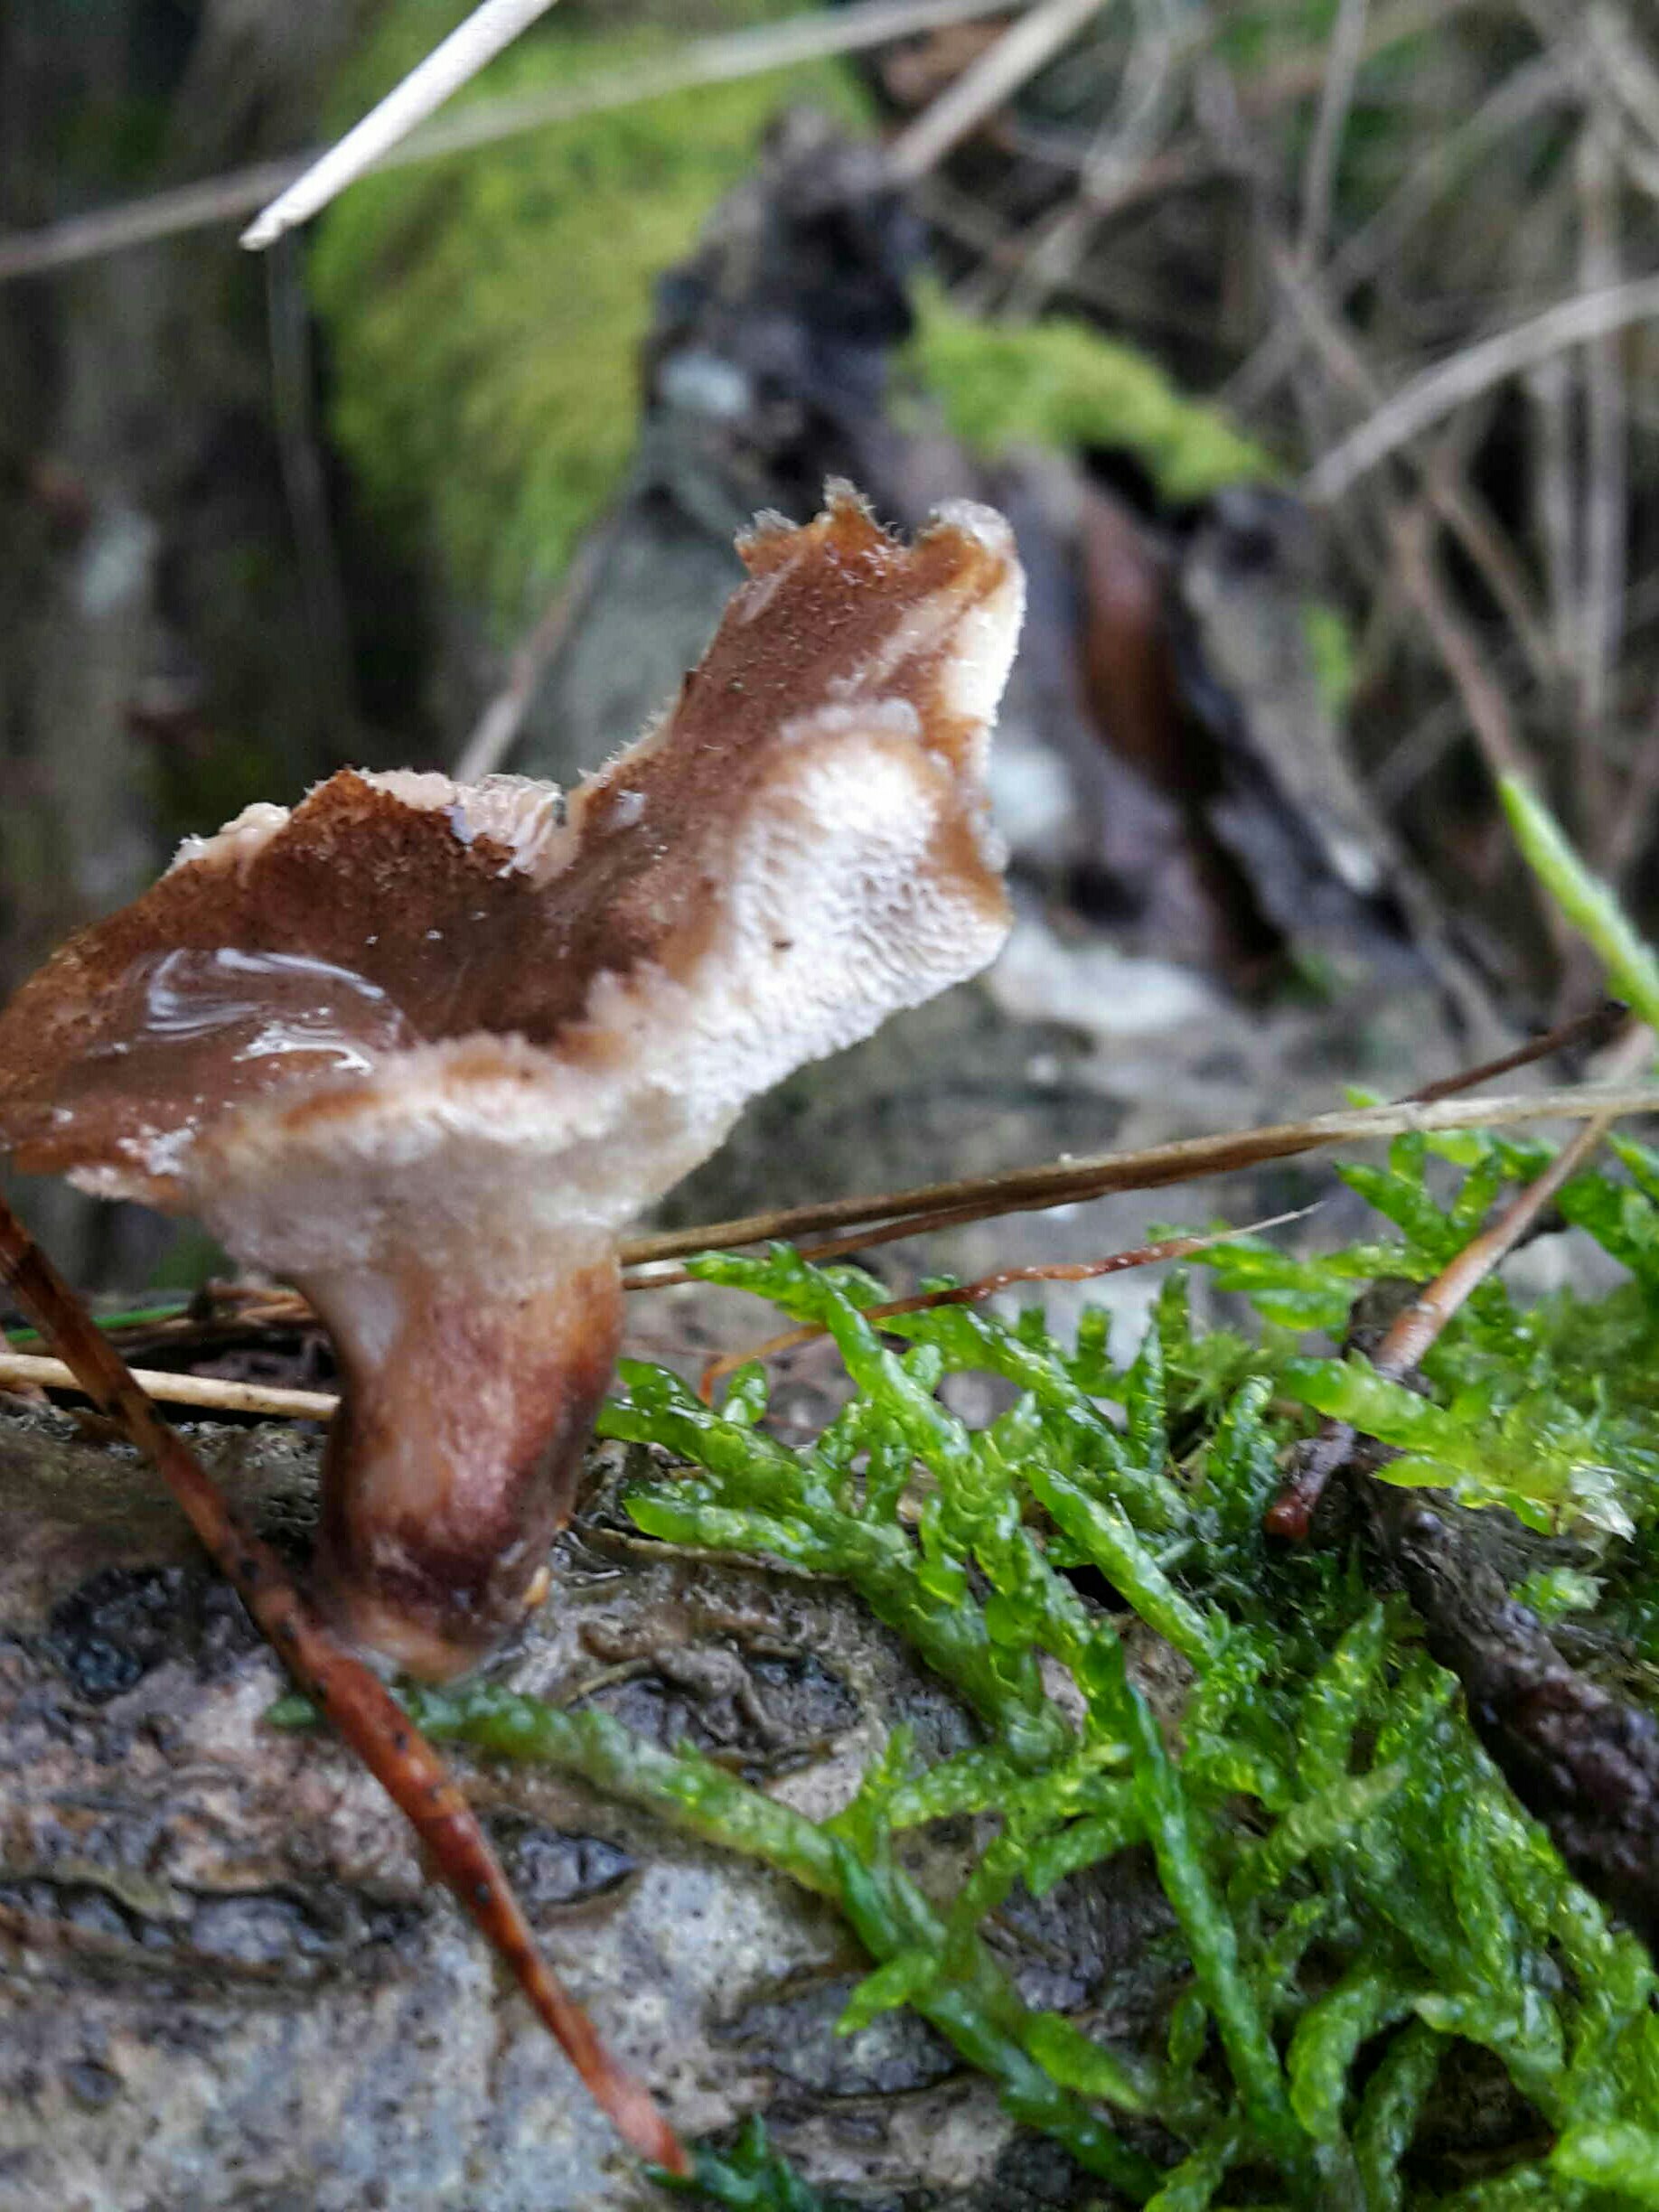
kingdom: Fungi
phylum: Basidiomycota
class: Agaricomycetes
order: Polyporales
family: Polyporaceae
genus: Lentinus
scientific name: Lentinus brumalis
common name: vinter-stilkporesvamp
